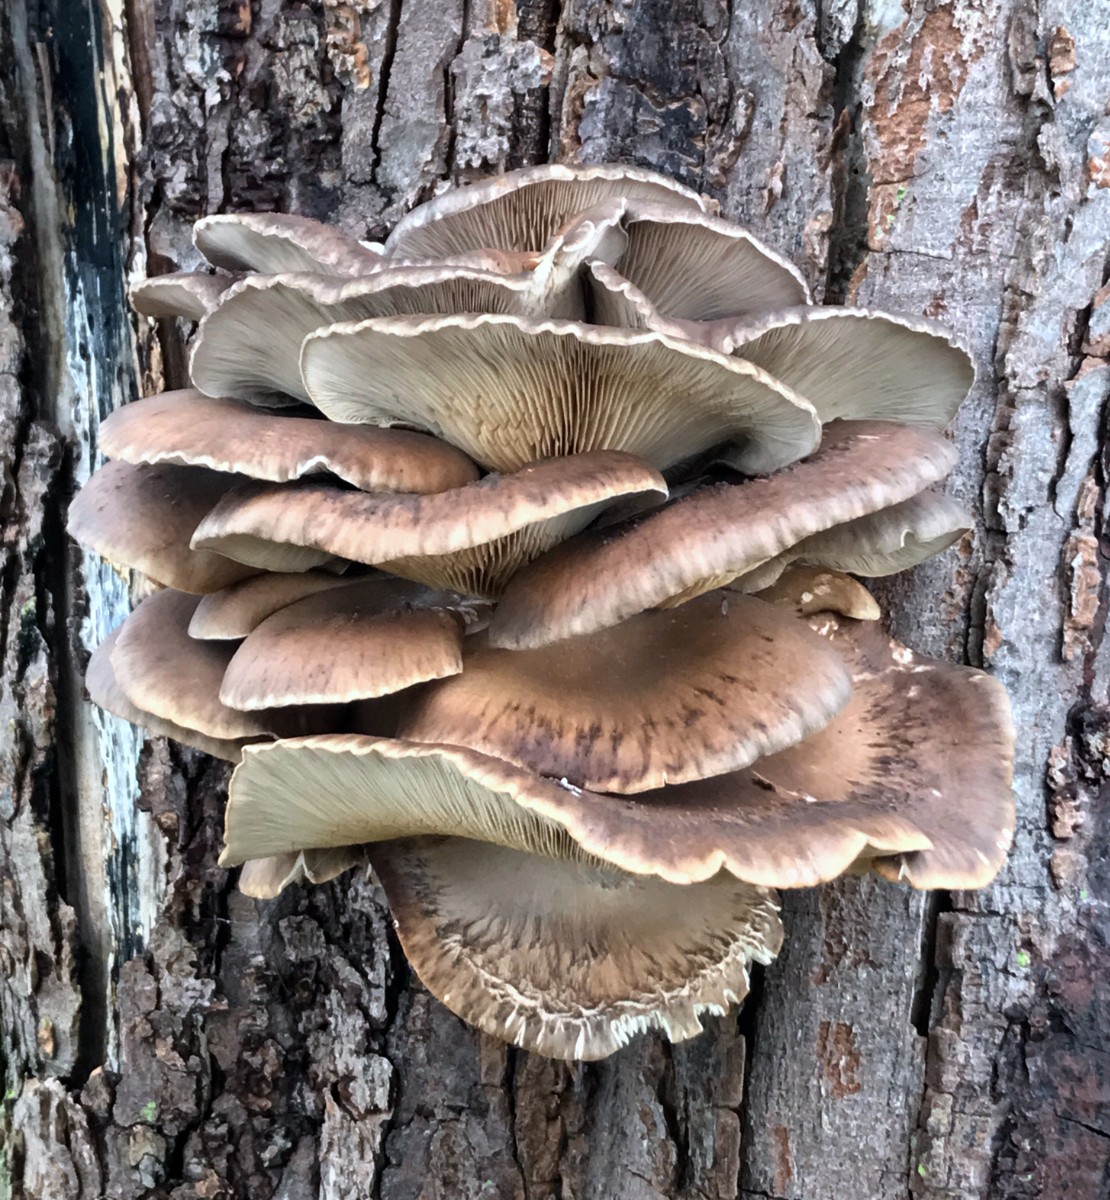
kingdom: Fungi
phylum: Basidiomycota
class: Agaricomycetes
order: Agaricales
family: Pleurotaceae
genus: Pleurotus
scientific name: Pleurotus ostreatus
